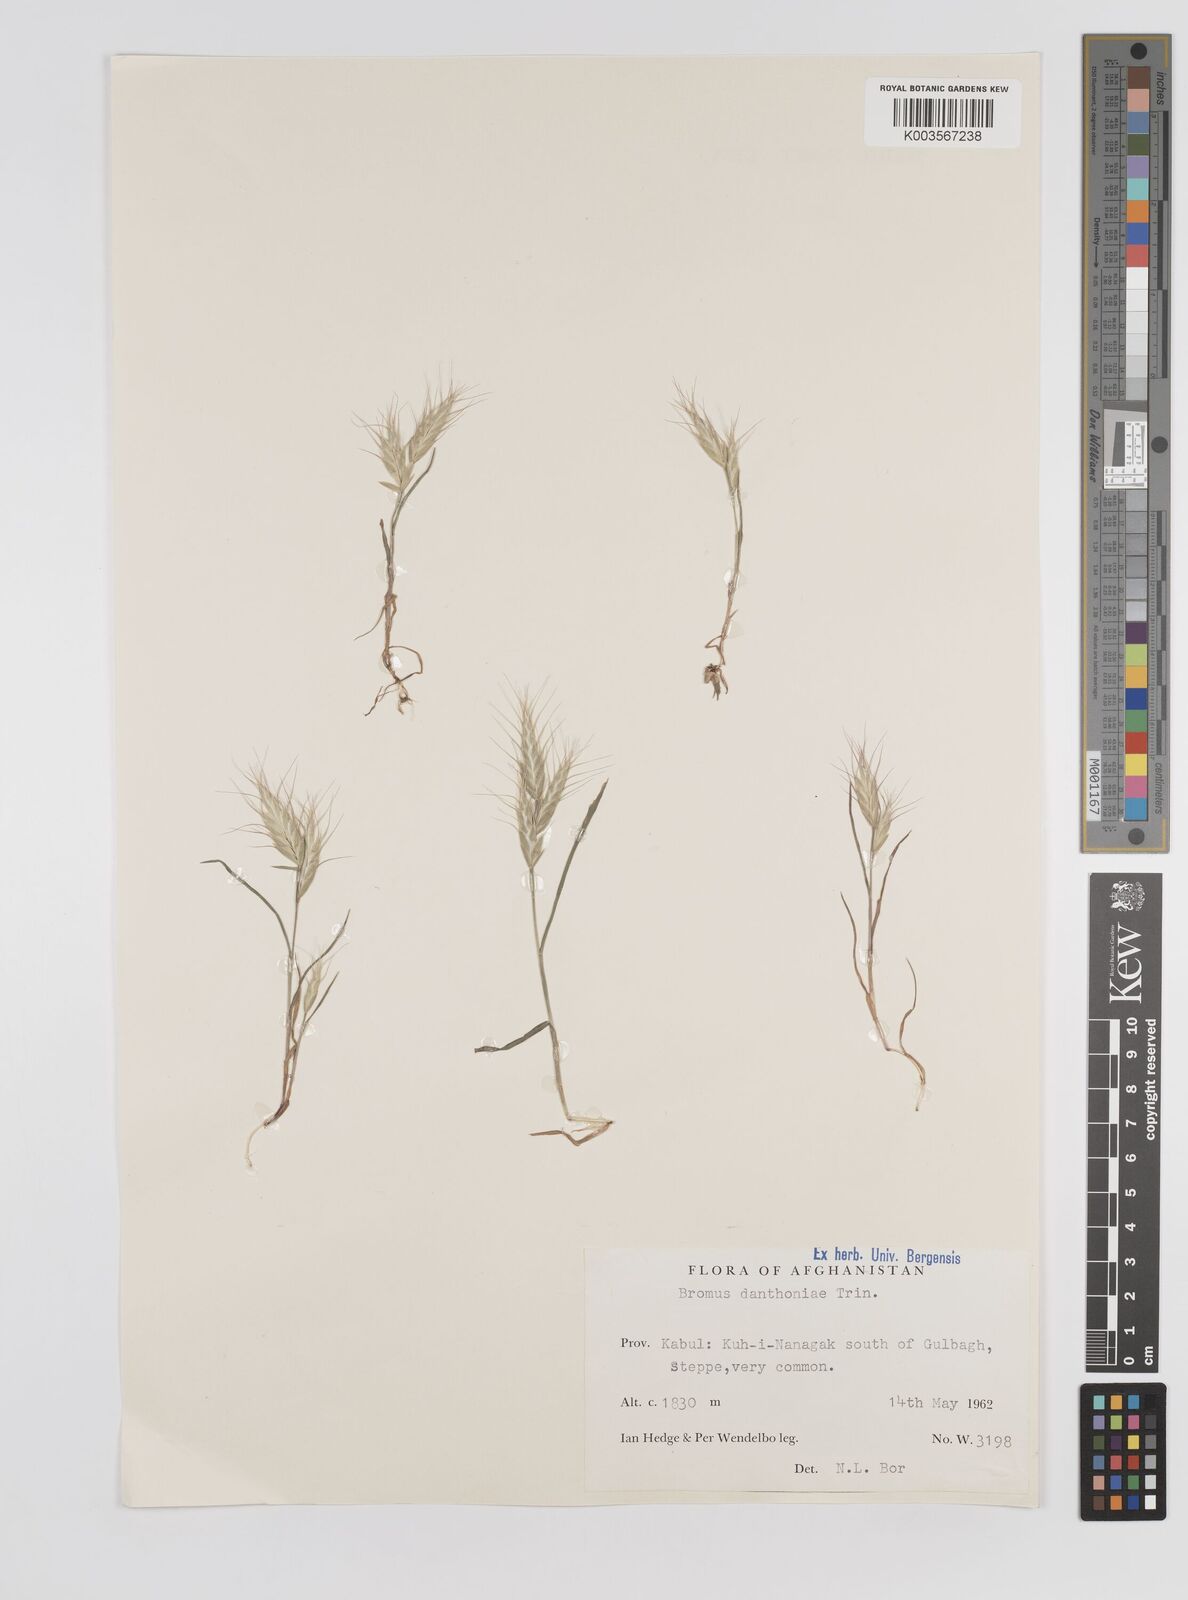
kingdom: Plantae
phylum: Tracheophyta
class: Liliopsida
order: Poales
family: Poaceae
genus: Bromus
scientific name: Bromus danthoniae
